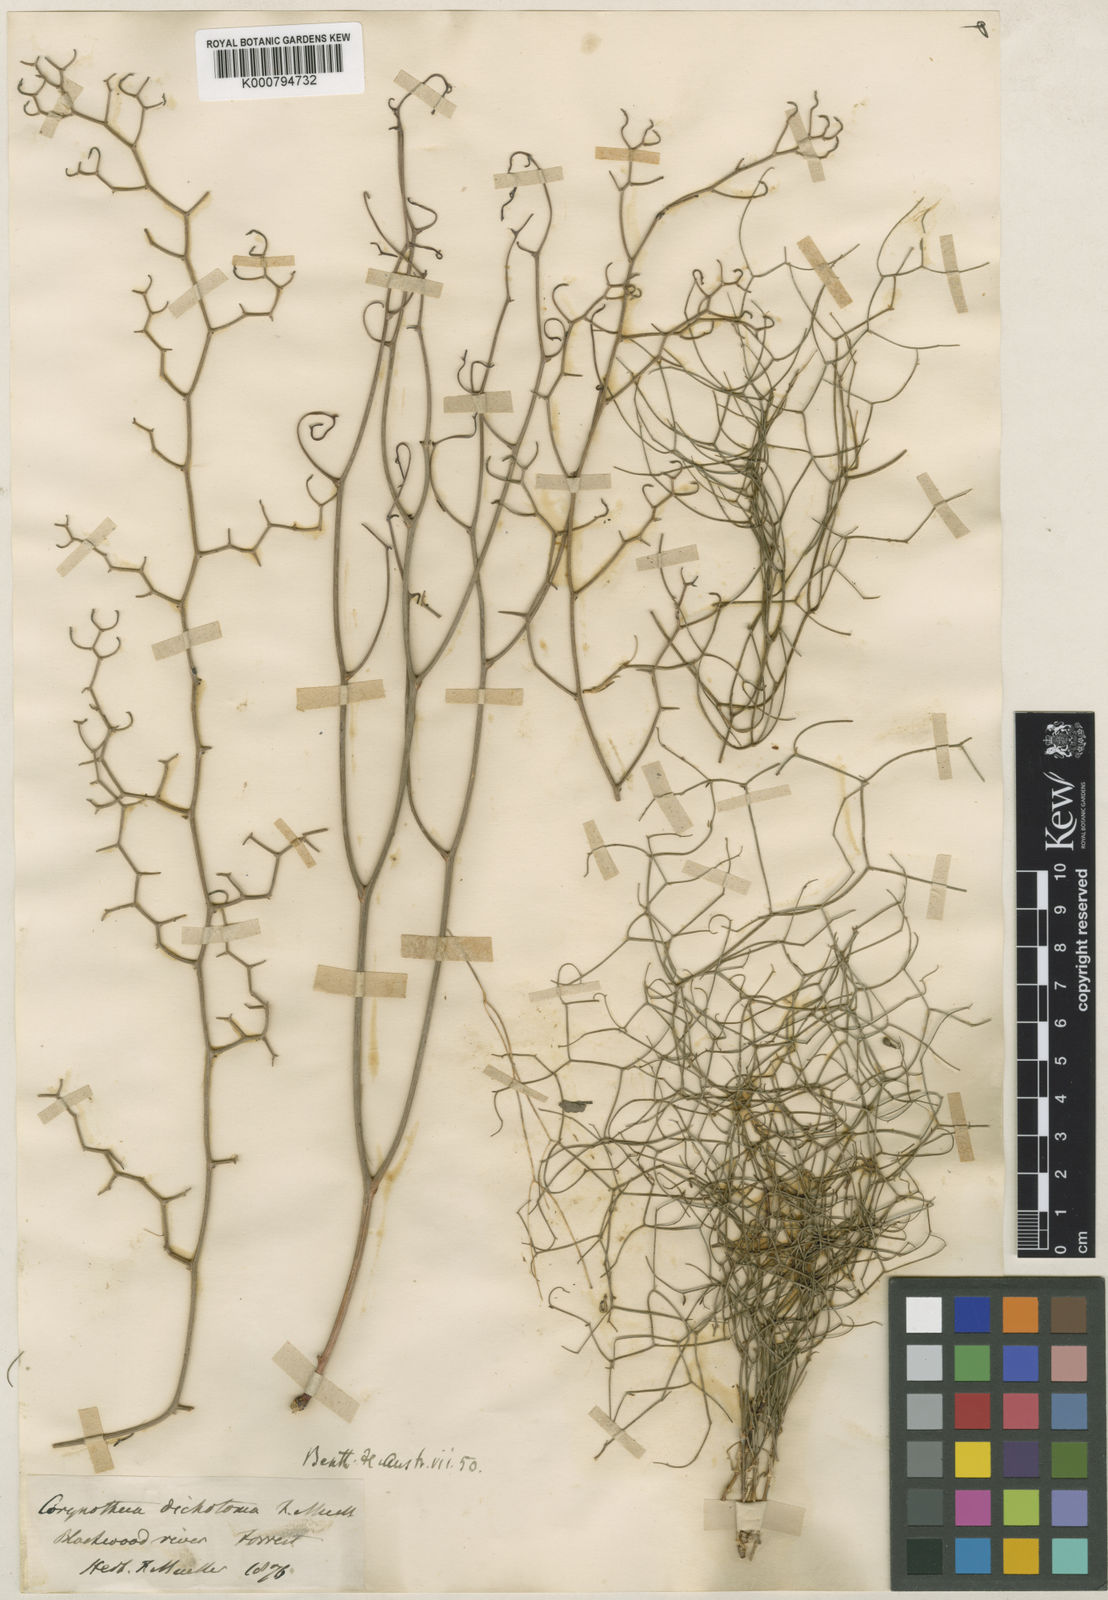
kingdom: Plantae
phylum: Tracheophyta
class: Liliopsida
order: Asparagales
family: Asphodelaceae
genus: Corynotheca
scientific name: Corynotheca micrantha
